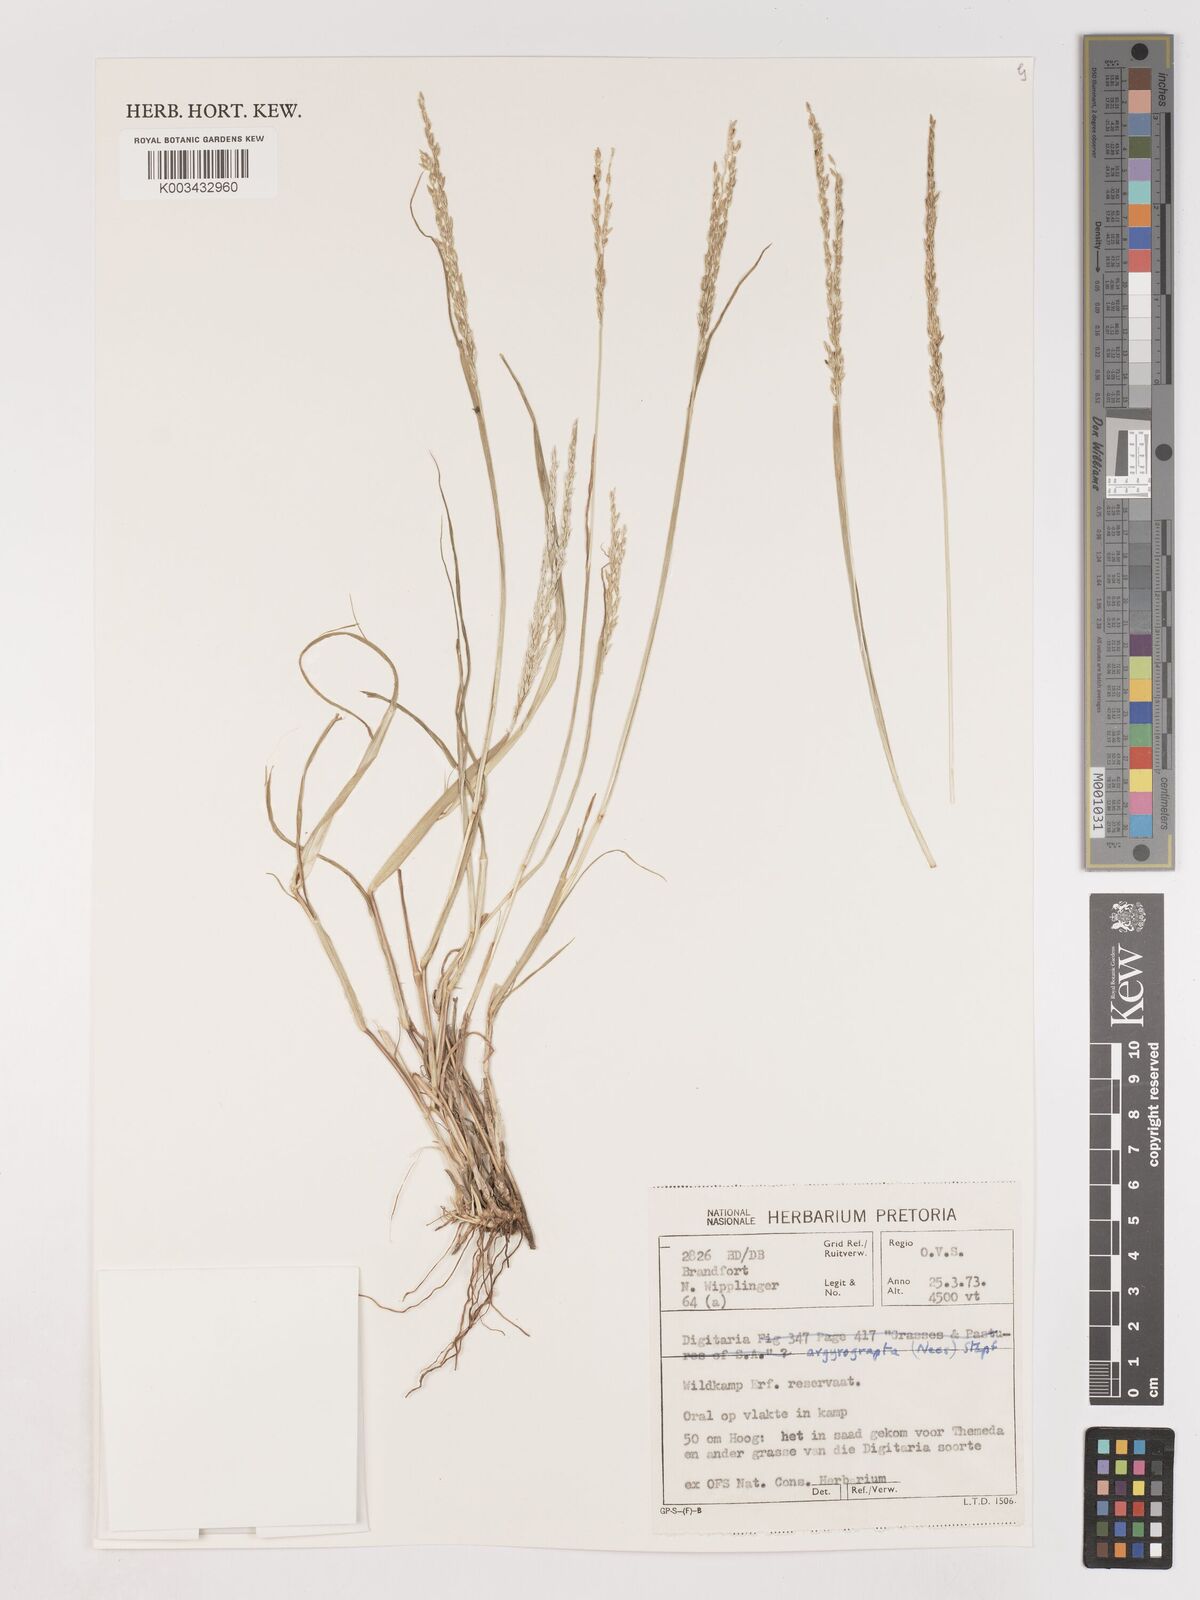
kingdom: Plantae
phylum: Tracheophyta
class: Liliopsida
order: Poales
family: Poaceae
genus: Digitaria
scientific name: Digitaria argyrograpta
